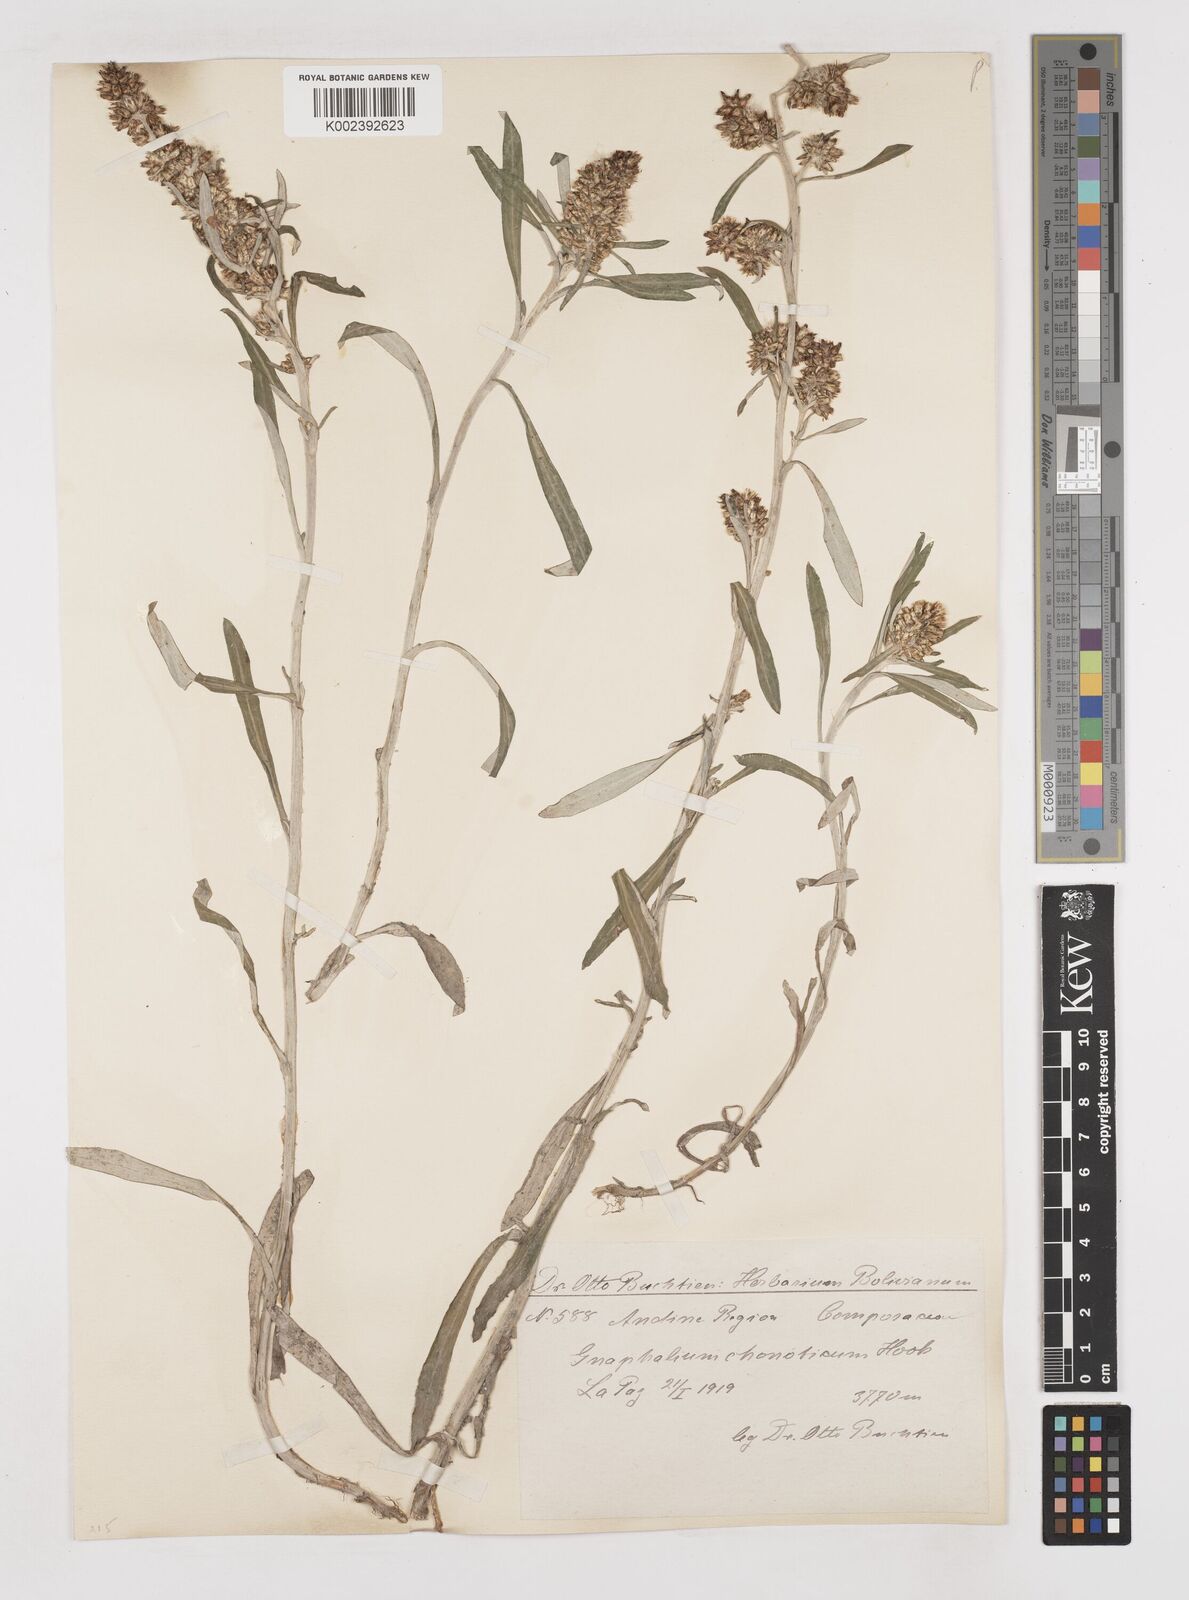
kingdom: Plantae
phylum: Tracheophyta
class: Magnoliopsida
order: Asterales
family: Asteraceae
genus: Gamochaeta
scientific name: Gamochaeta americana
